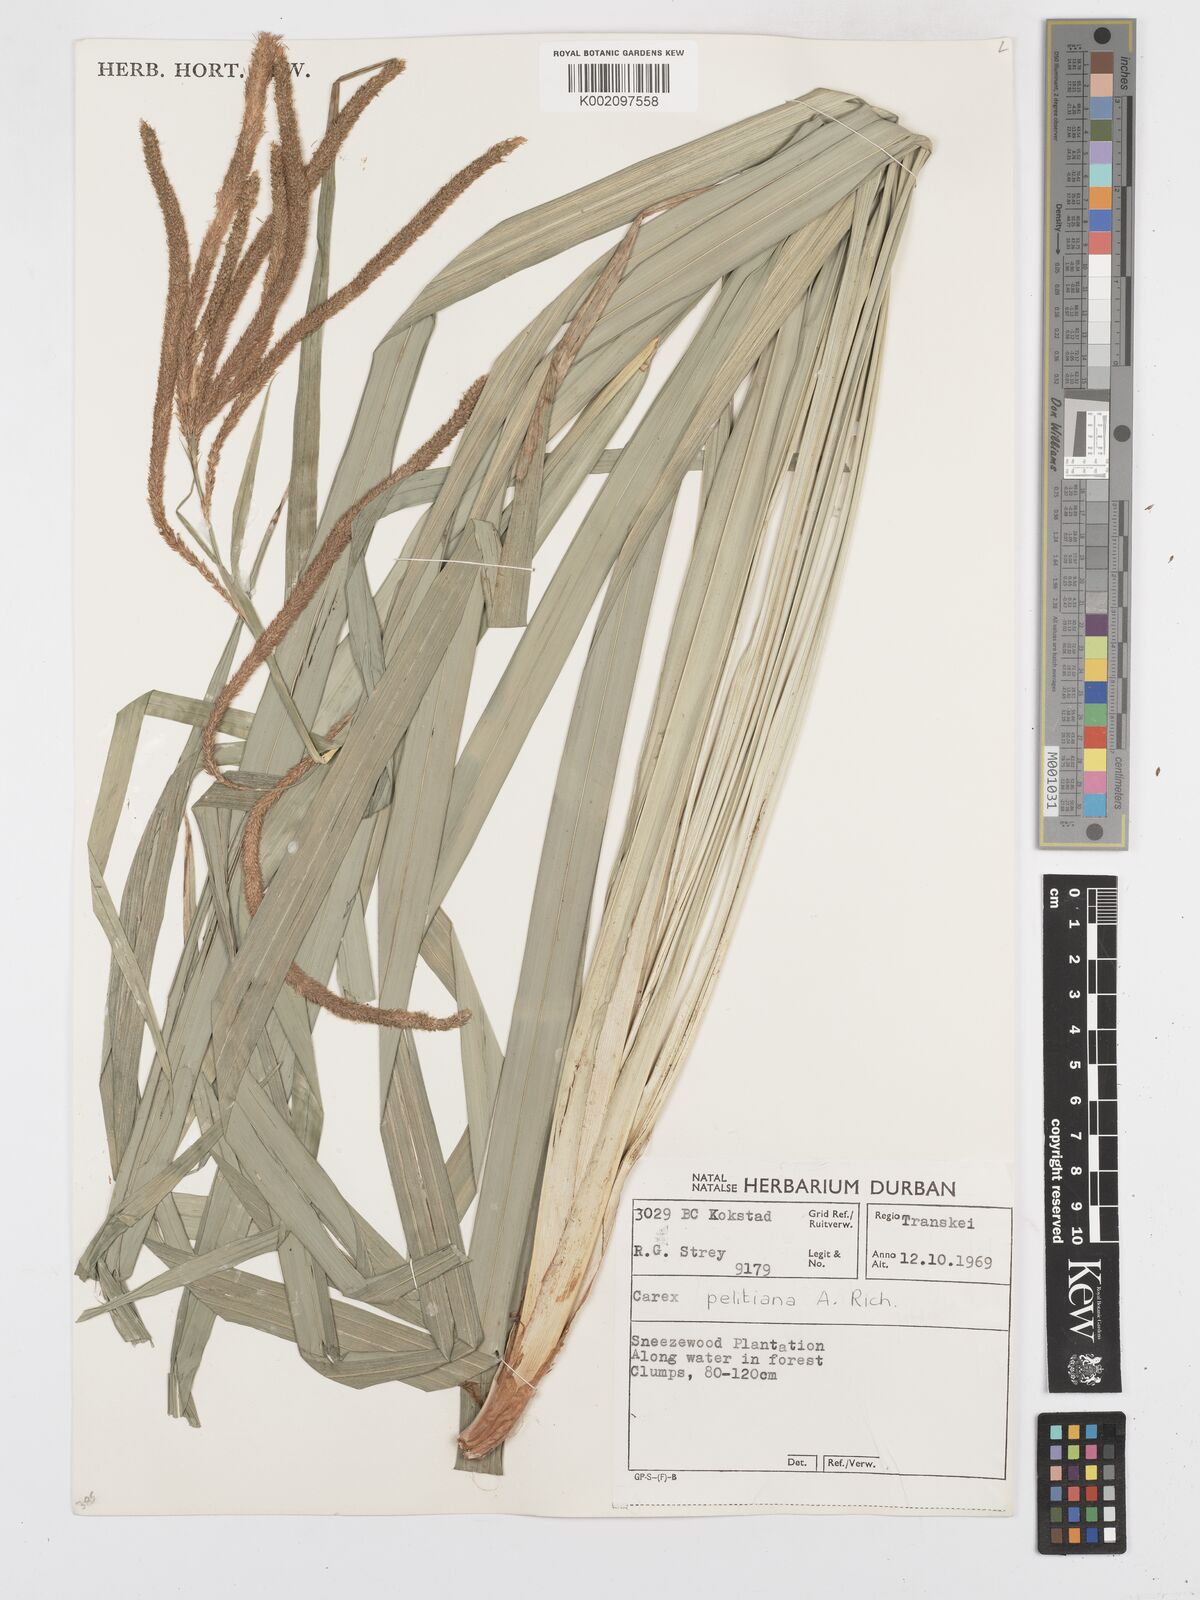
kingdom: Plantae
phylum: Tracheophyta
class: Liliopsida
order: Poales
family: Cyperaceae
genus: Carex
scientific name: Carex petitiana
